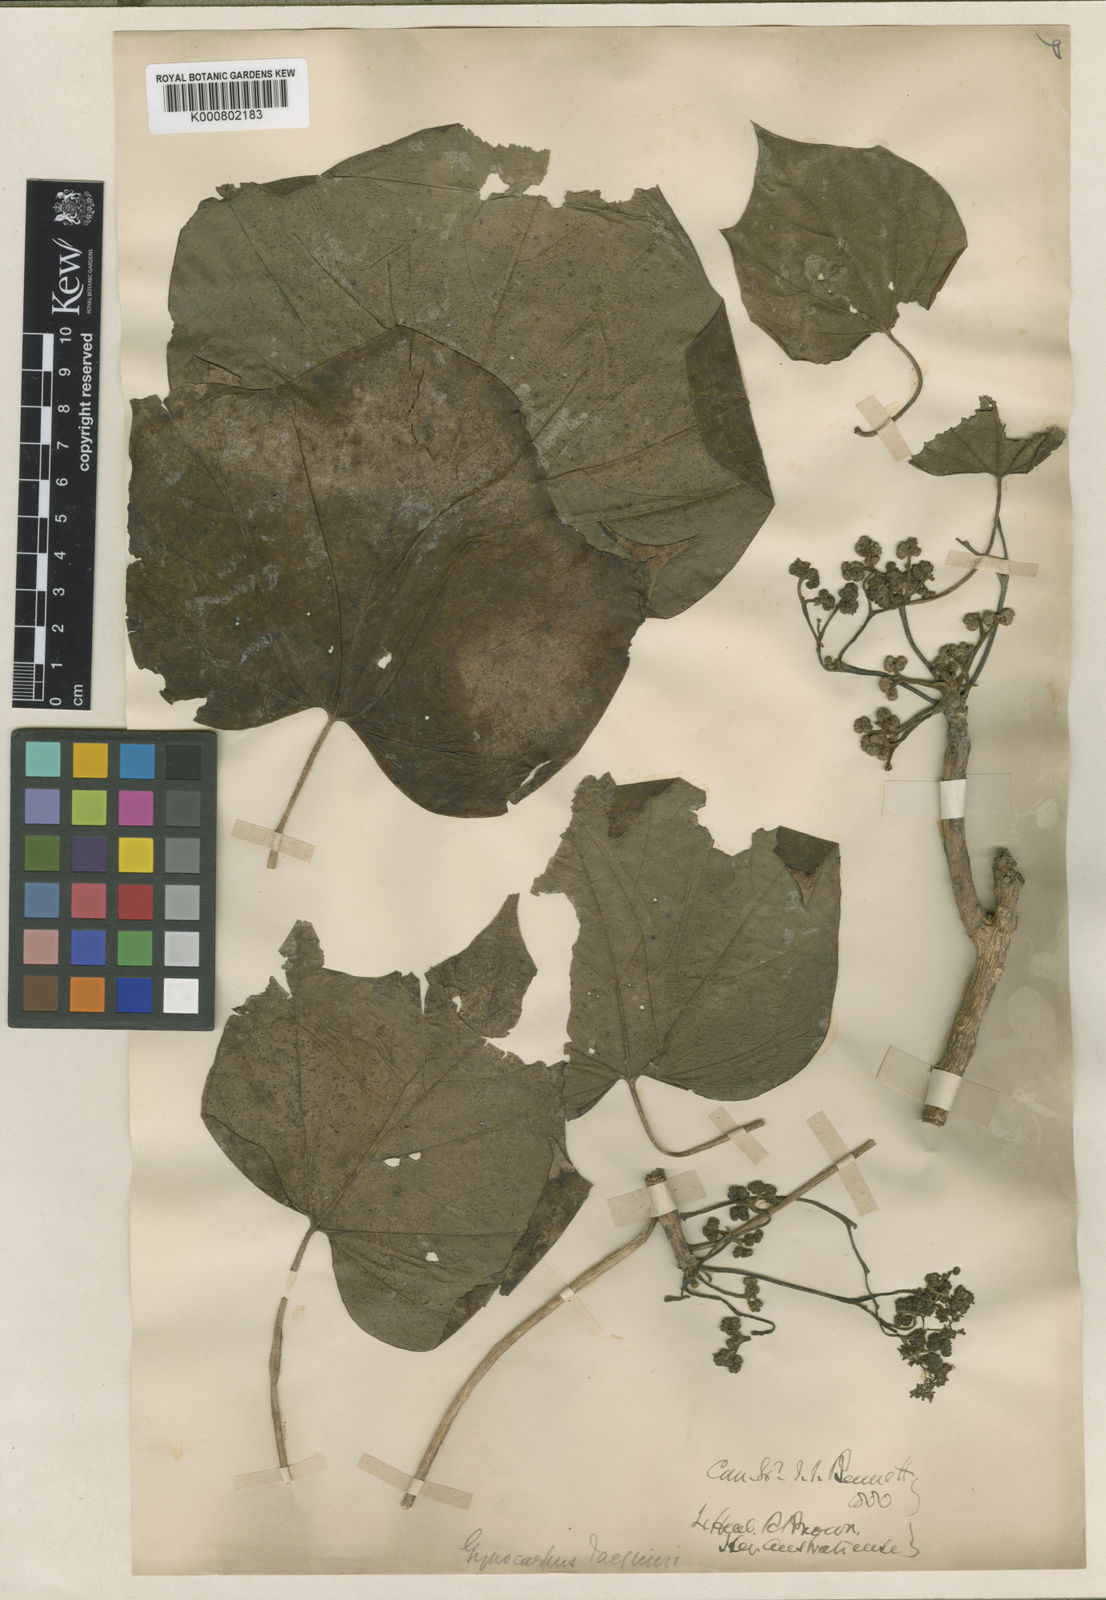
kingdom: Plantae
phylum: Tracheophyta
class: Magnoliopsida
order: Laurales
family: Hernandiaceae
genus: Gyrocarpus
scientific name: Gyrocarpus americanus
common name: Gyro damson
